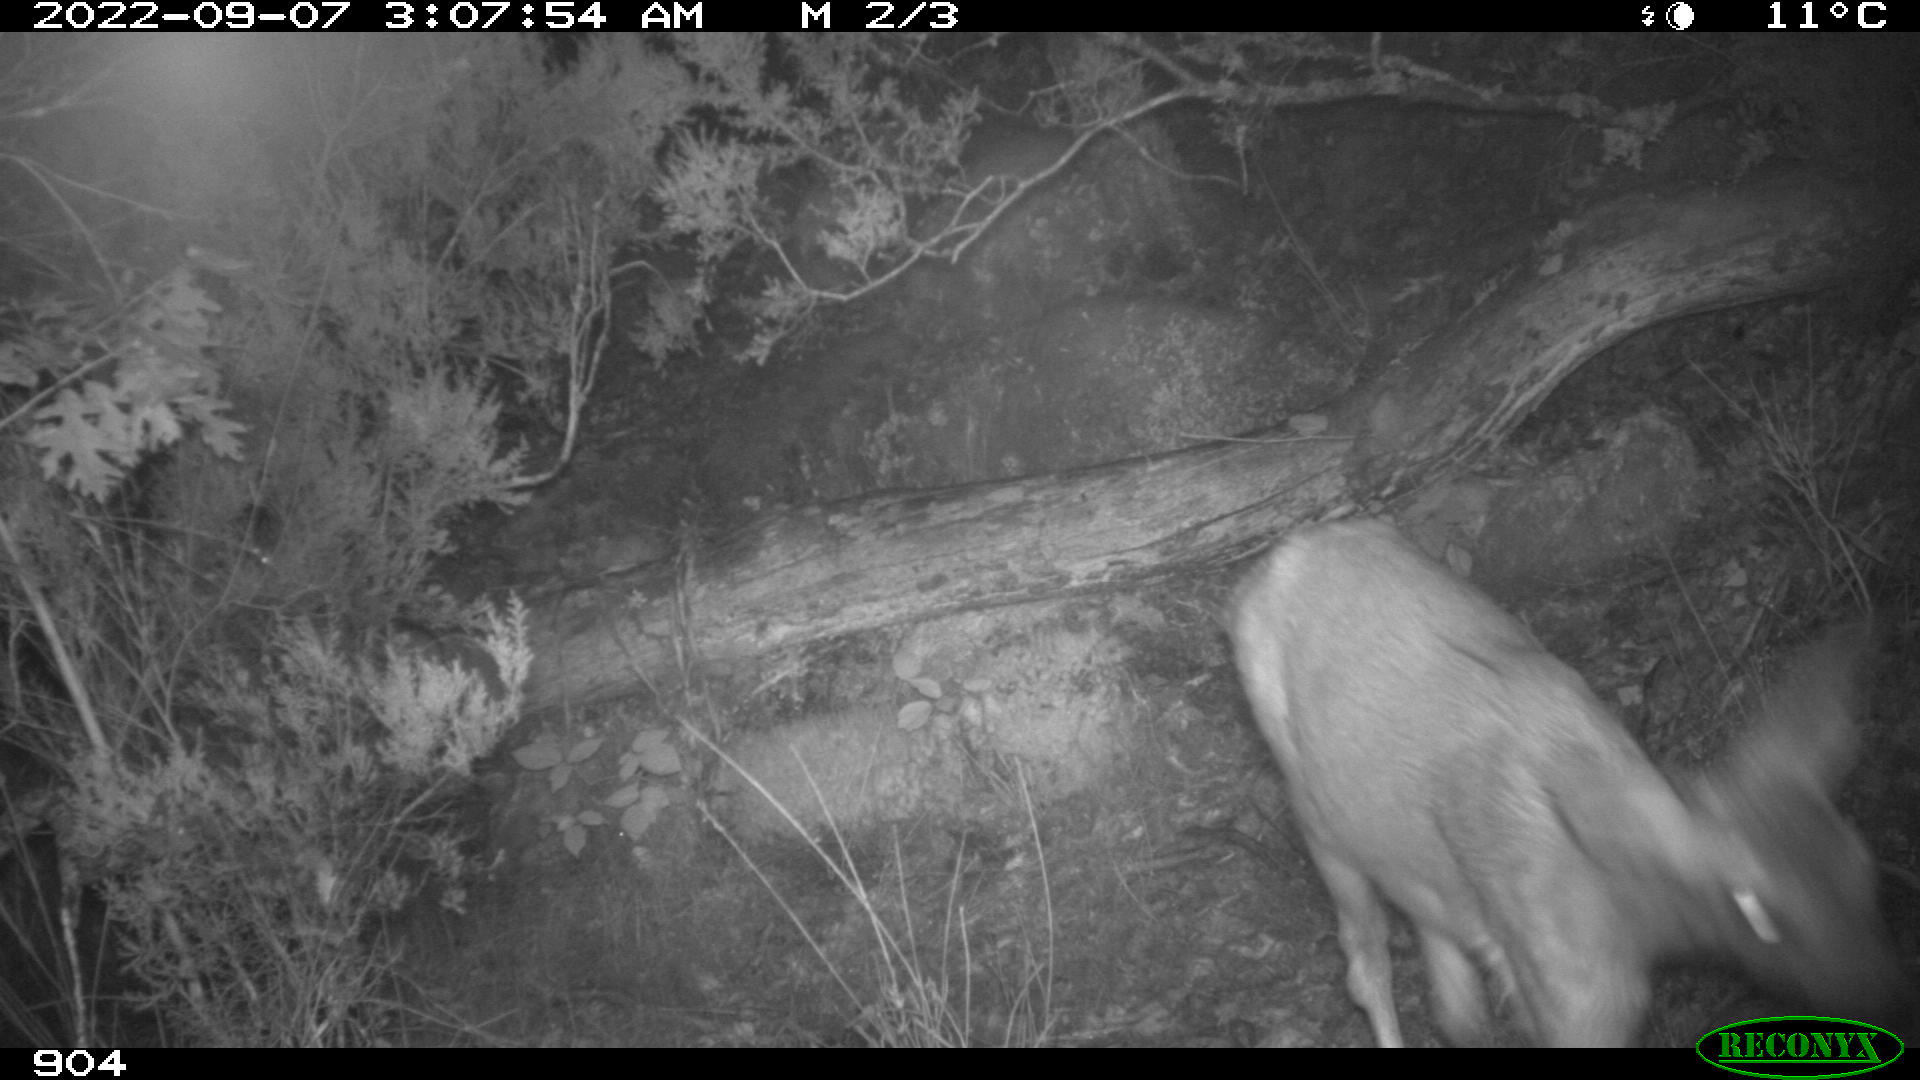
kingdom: Animalia
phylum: Chordata
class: Mammalia
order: Artiodactyla
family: Cervidae
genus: Capreolus
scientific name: Capreolus capreolus
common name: Western roe deer
